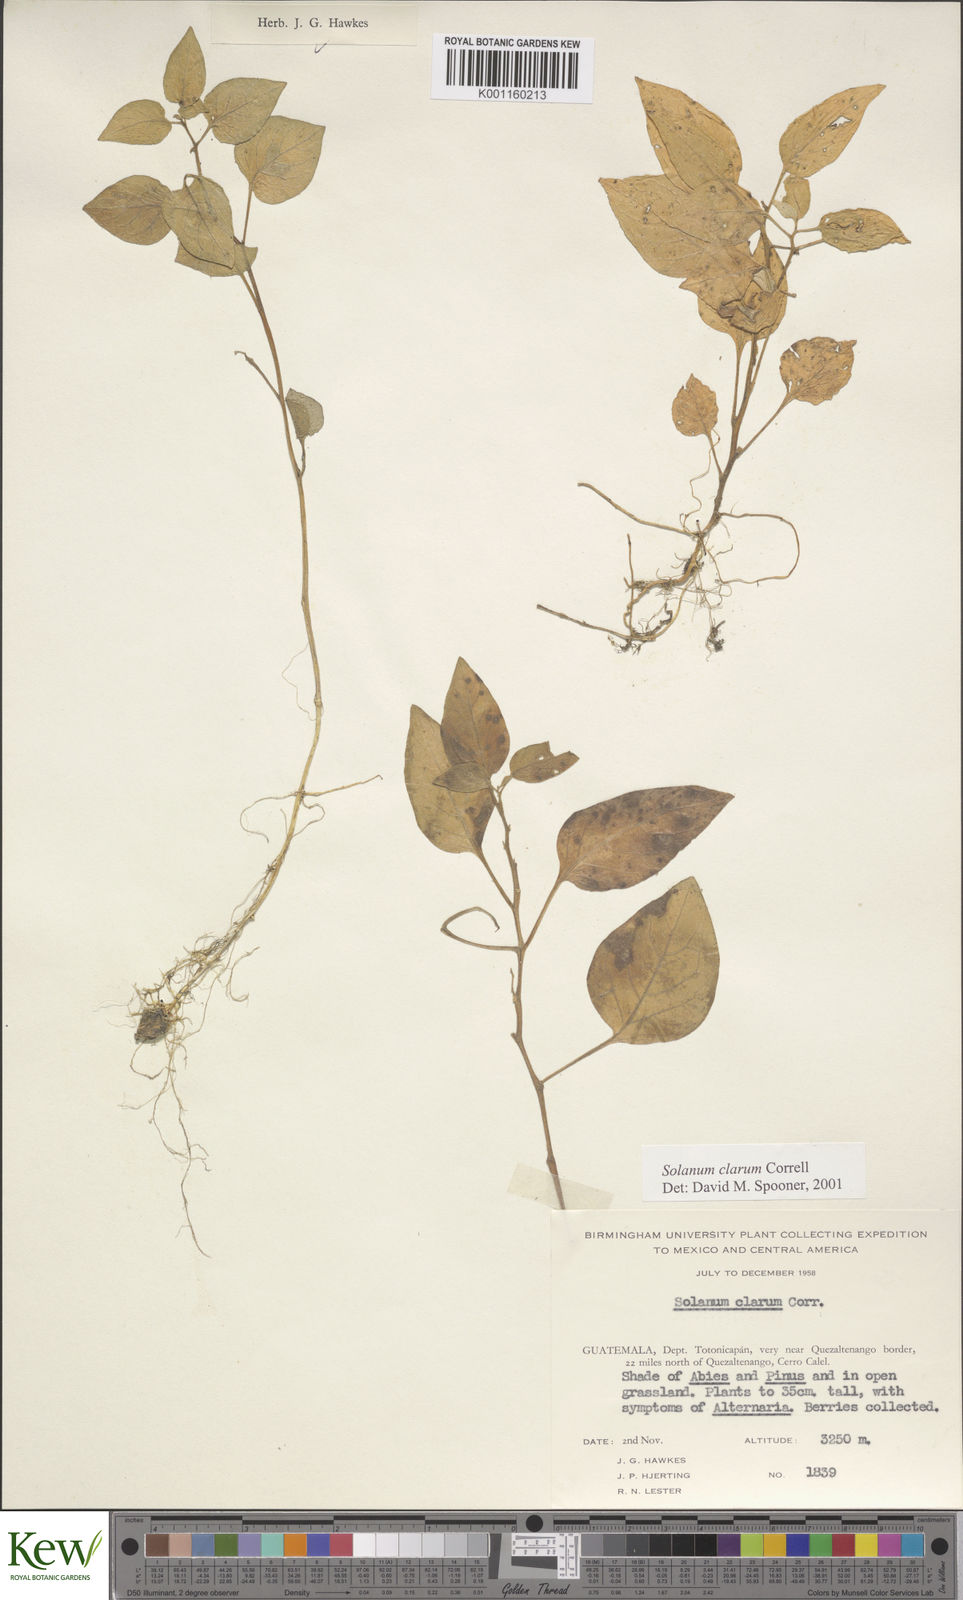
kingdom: Plantae
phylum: Tracheophyta
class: Magnoliopsida
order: Solanales
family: Solanaceae
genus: Solanum
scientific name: Solanum clarum
